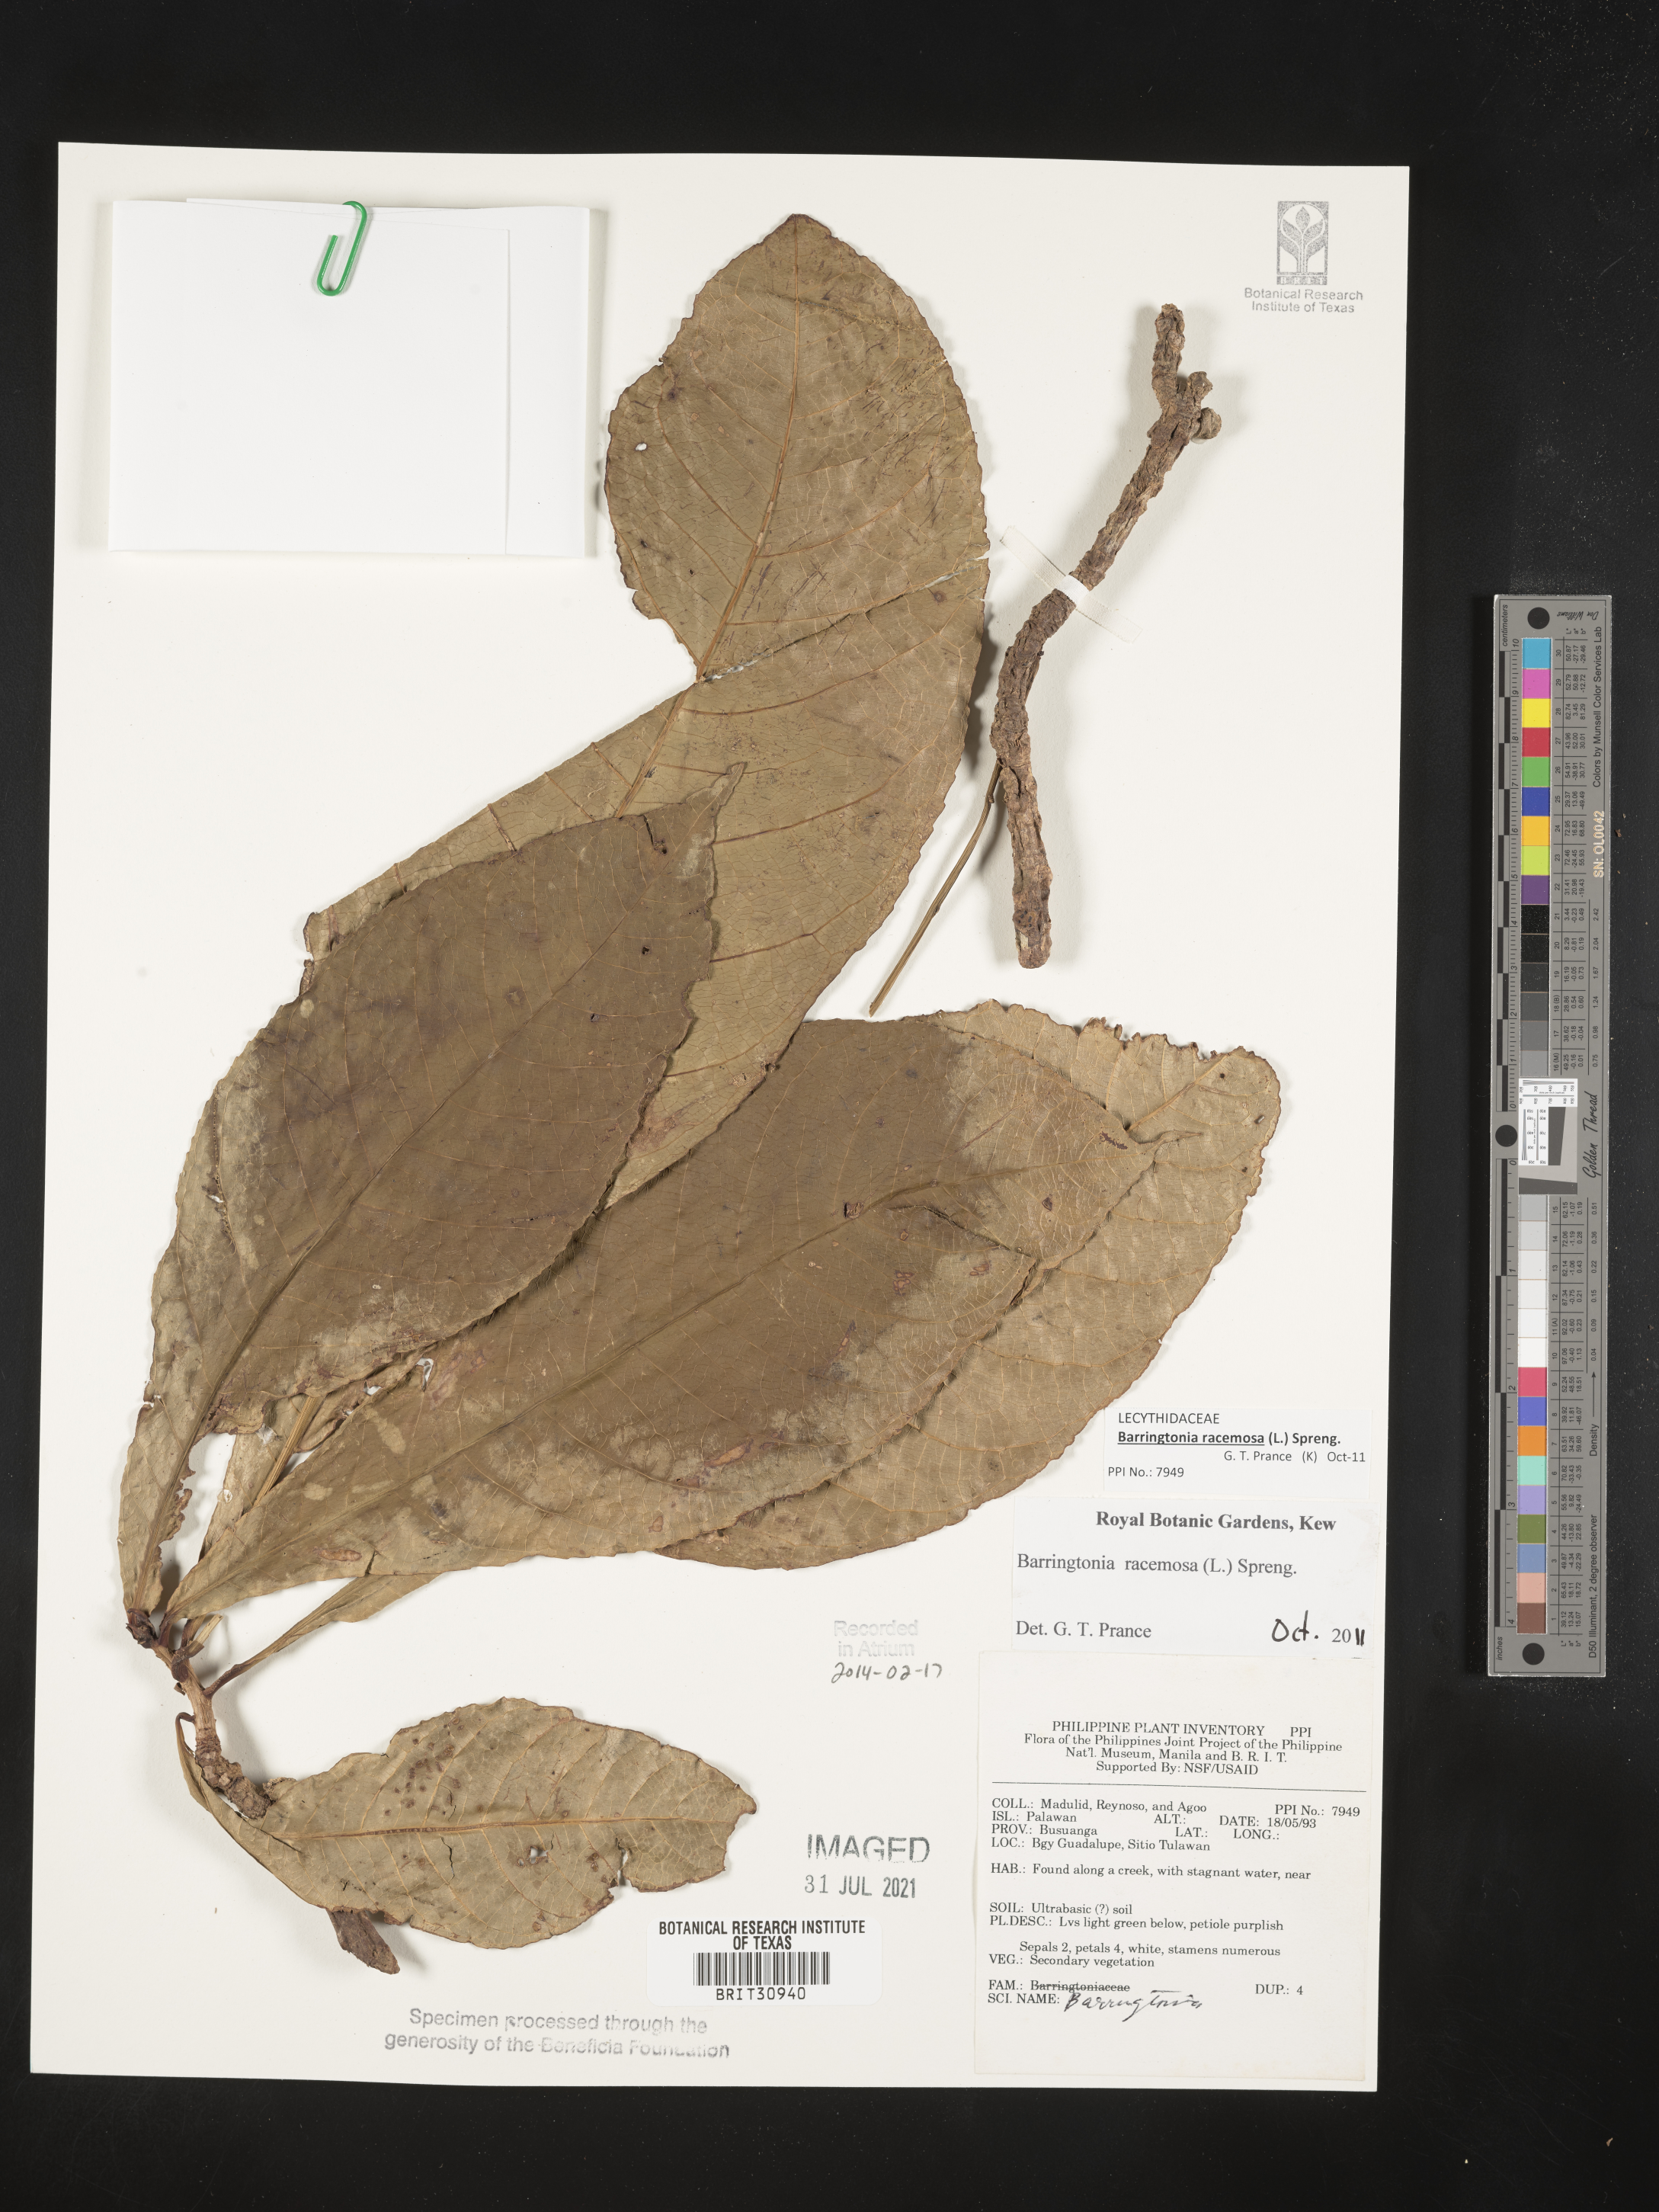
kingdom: Plantae
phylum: Tracheophyta
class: Magnoliopsida
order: Ericales
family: Lecythidaceae
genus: Barringtonia
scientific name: Barringtonia
